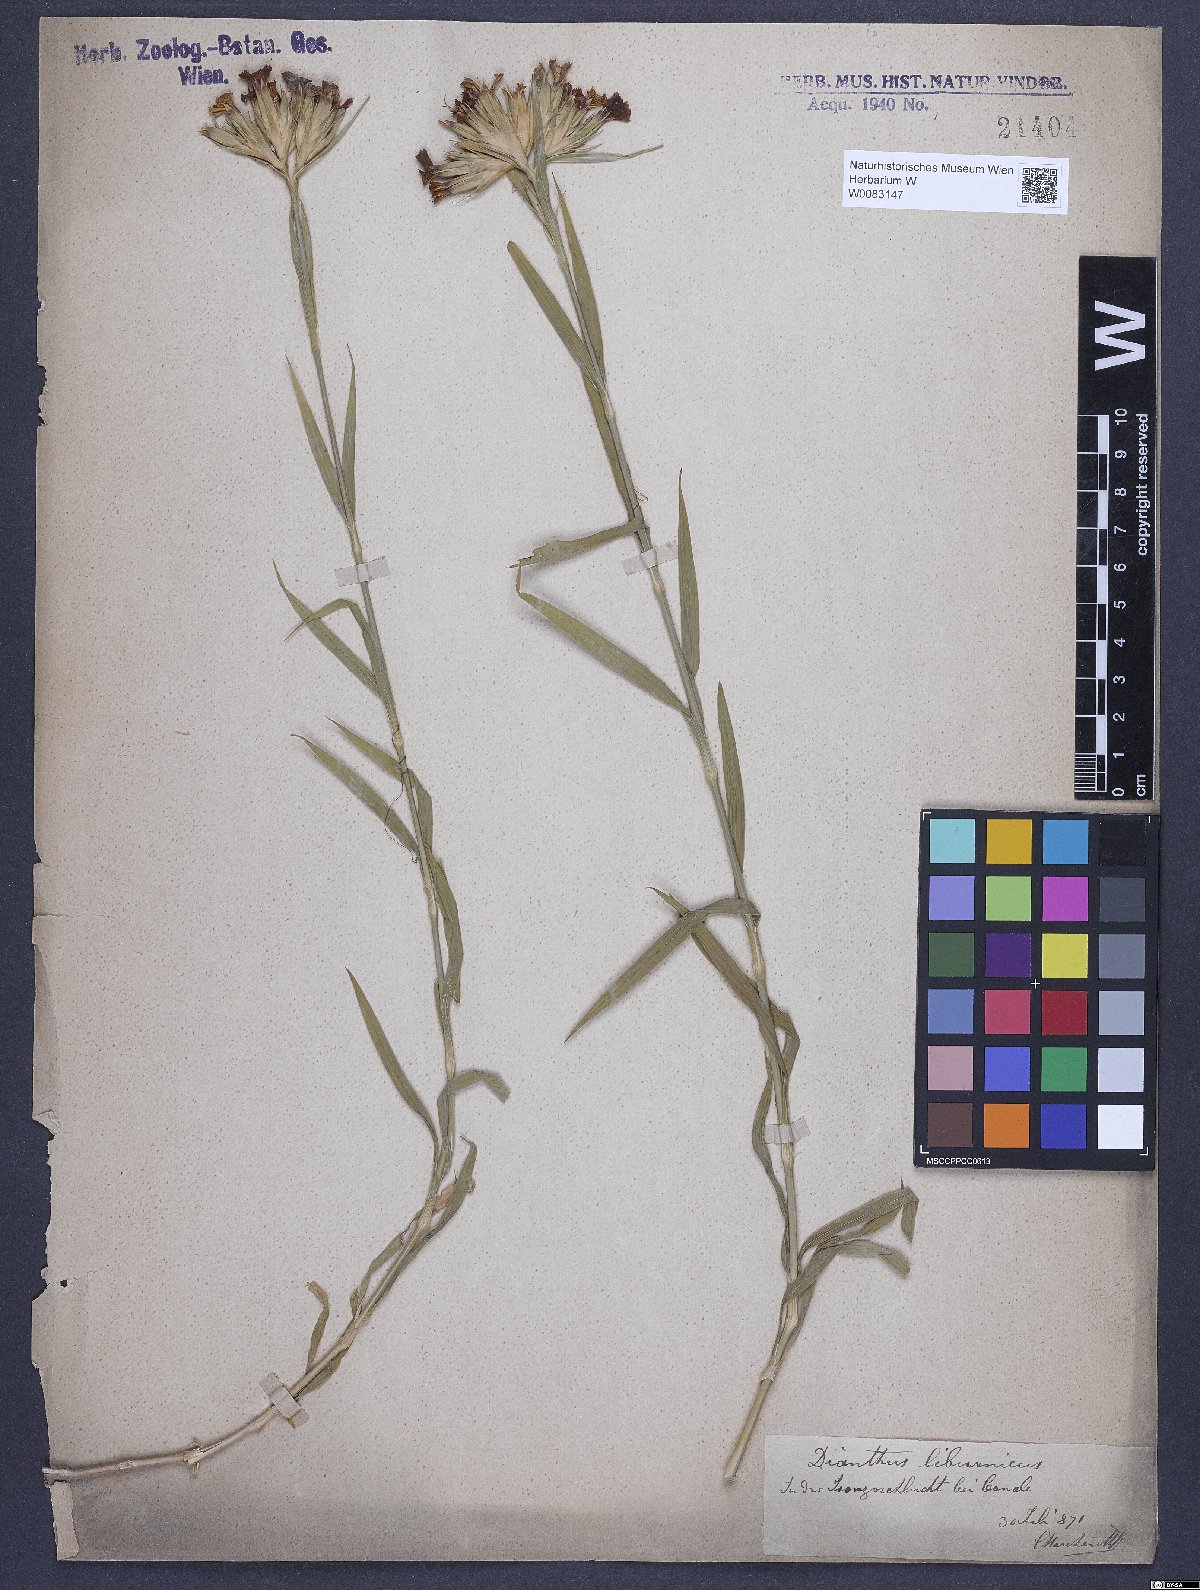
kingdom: Plantae
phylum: Tracheophyta
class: Magnoliopsida
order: Caryophyllales
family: Caryophyllaceae
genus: Dianthus
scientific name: Dianthus balbisii
